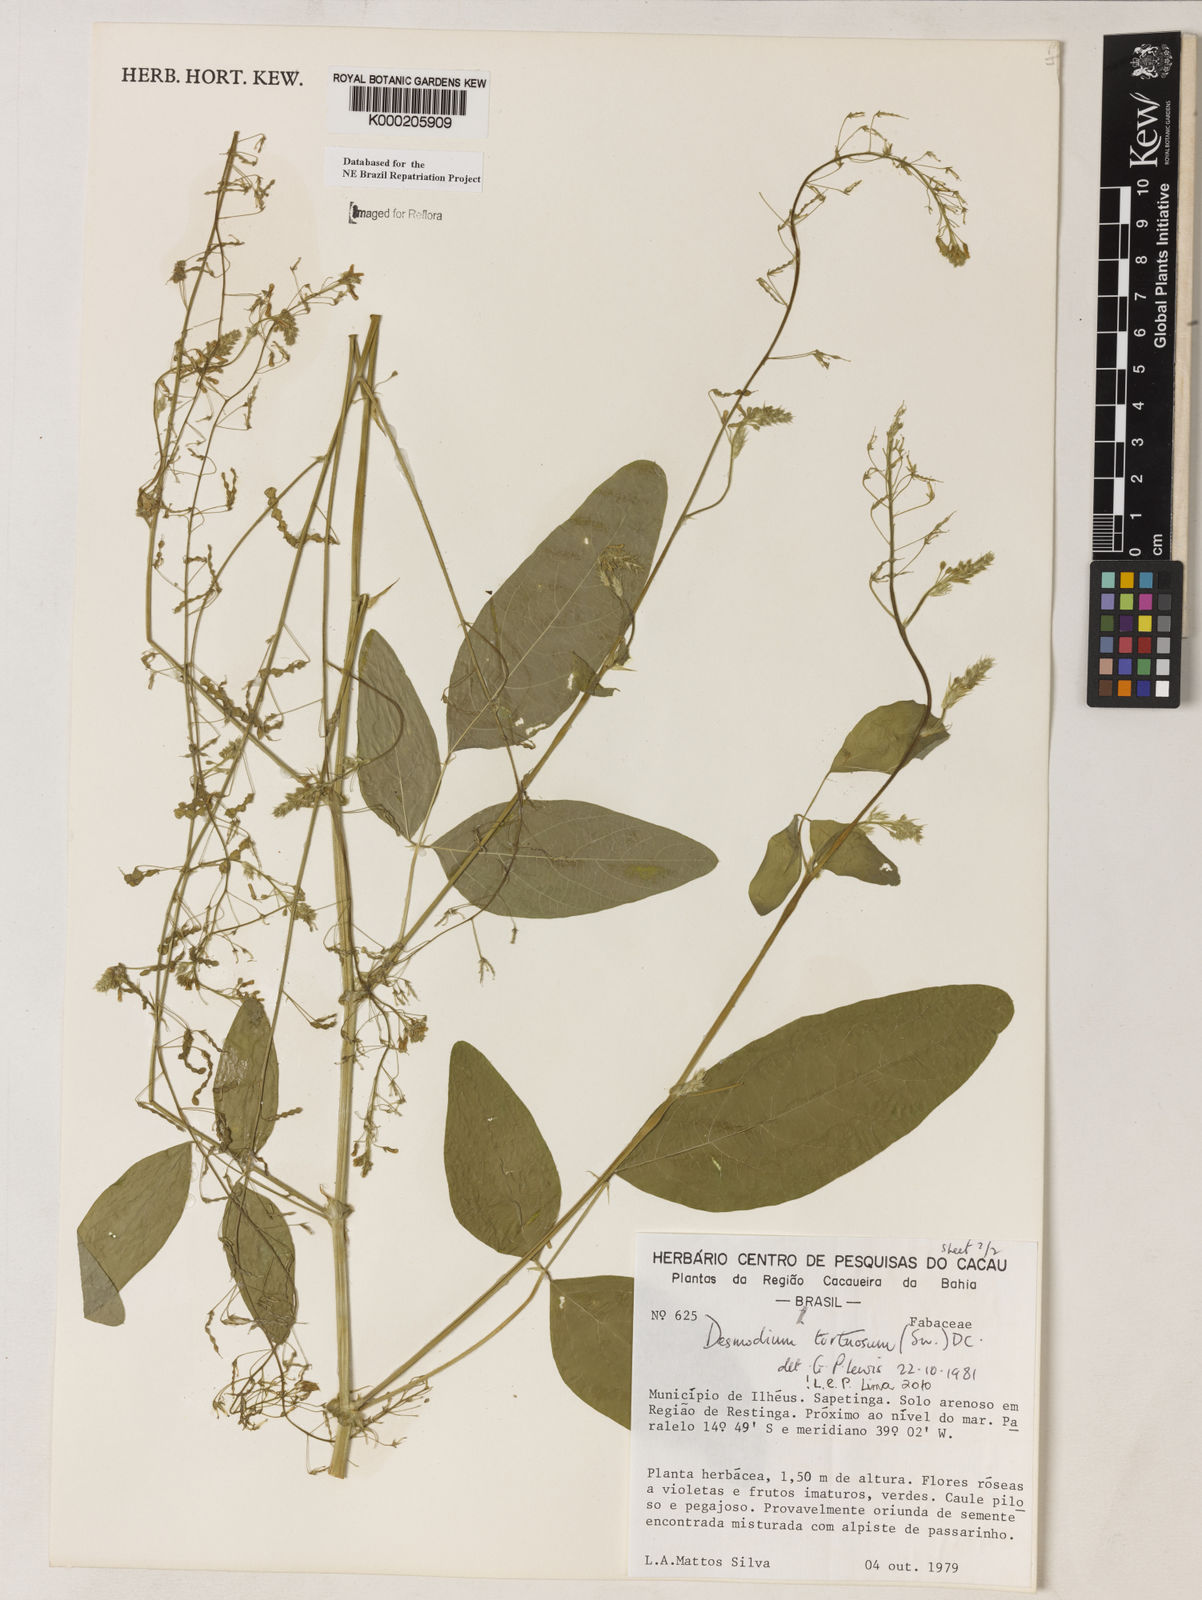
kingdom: Plantae
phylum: Tracheophyta
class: Magnoliopsida
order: Fabales
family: Fabaceae
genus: Desmodium
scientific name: Desmodium tortuosum
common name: Dixie ticktrefoil
